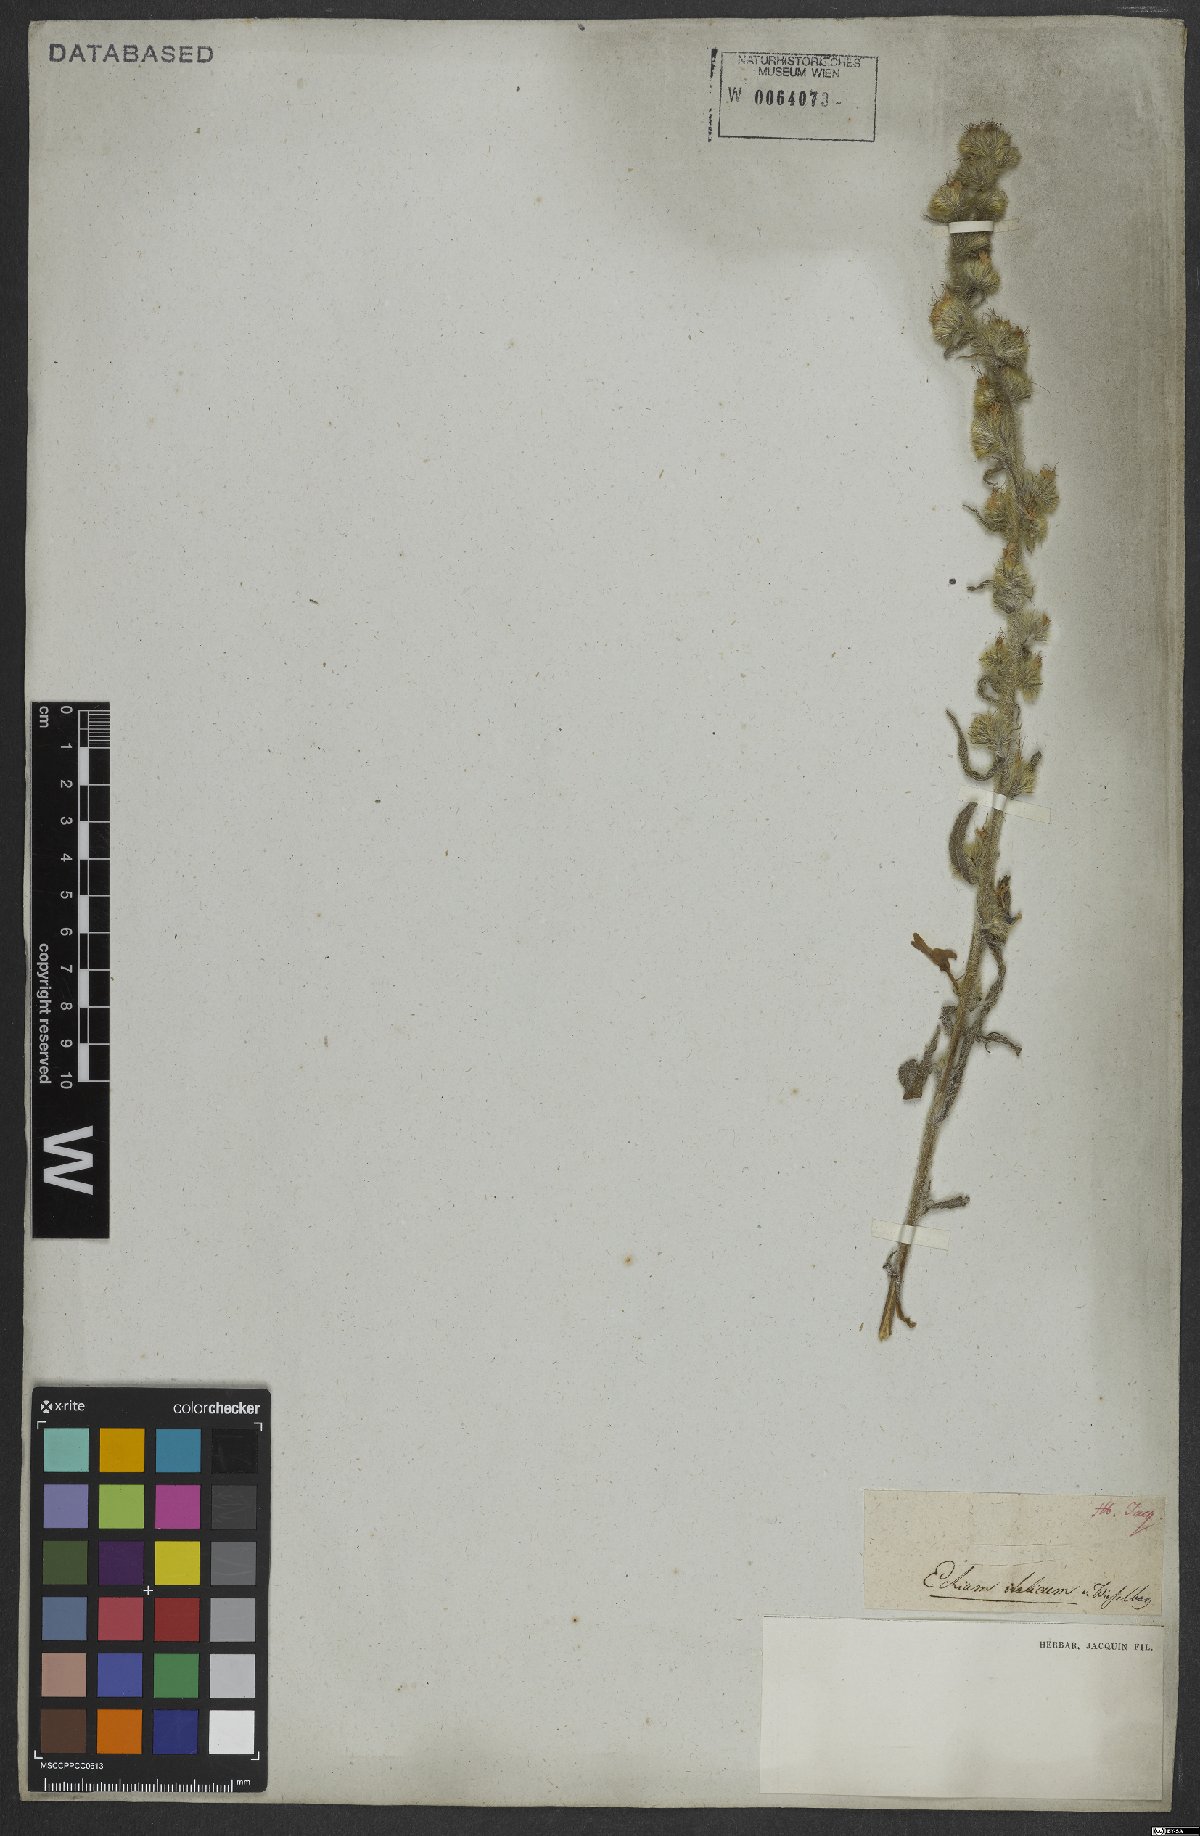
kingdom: Plantae
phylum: Tracheophyta
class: Magnoliopsida
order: Boraginales
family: Boraginaceae
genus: Echium
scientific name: Echium italicum
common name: Italian viper's bugloss
